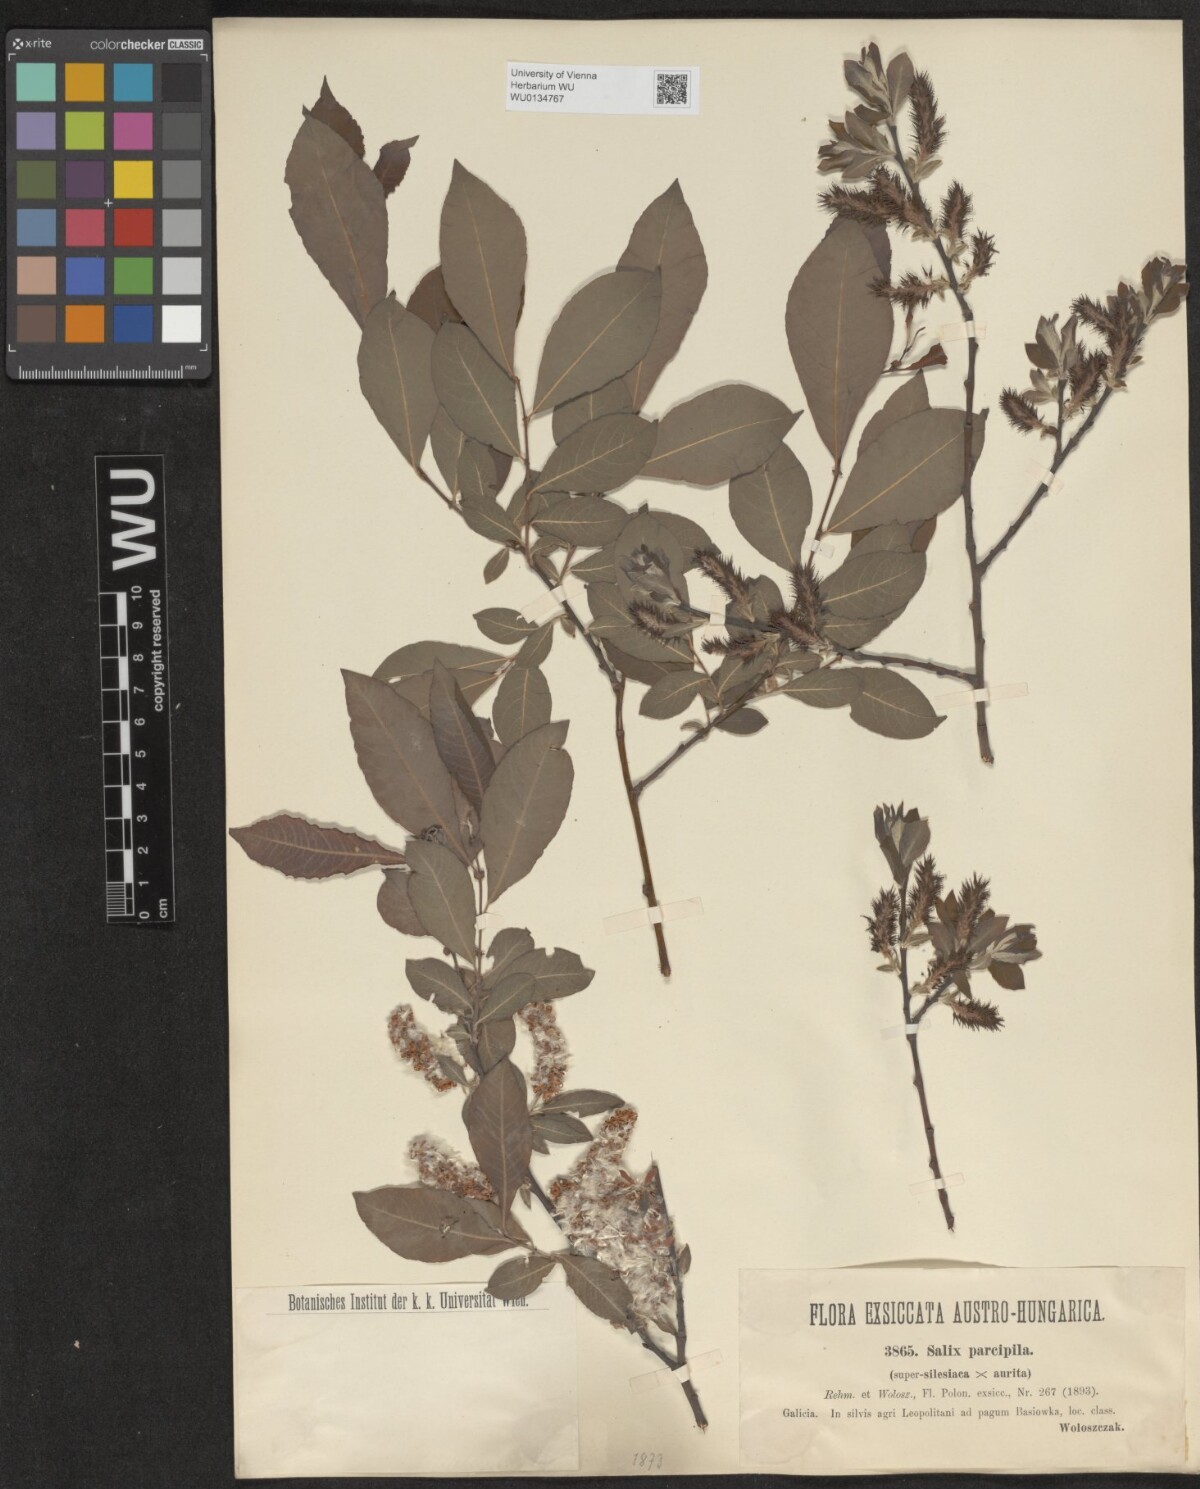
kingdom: Plantae
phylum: Tracheophyta
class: Magnoliopsida
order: Malpighiales
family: Salicaceae
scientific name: Salicaceae
